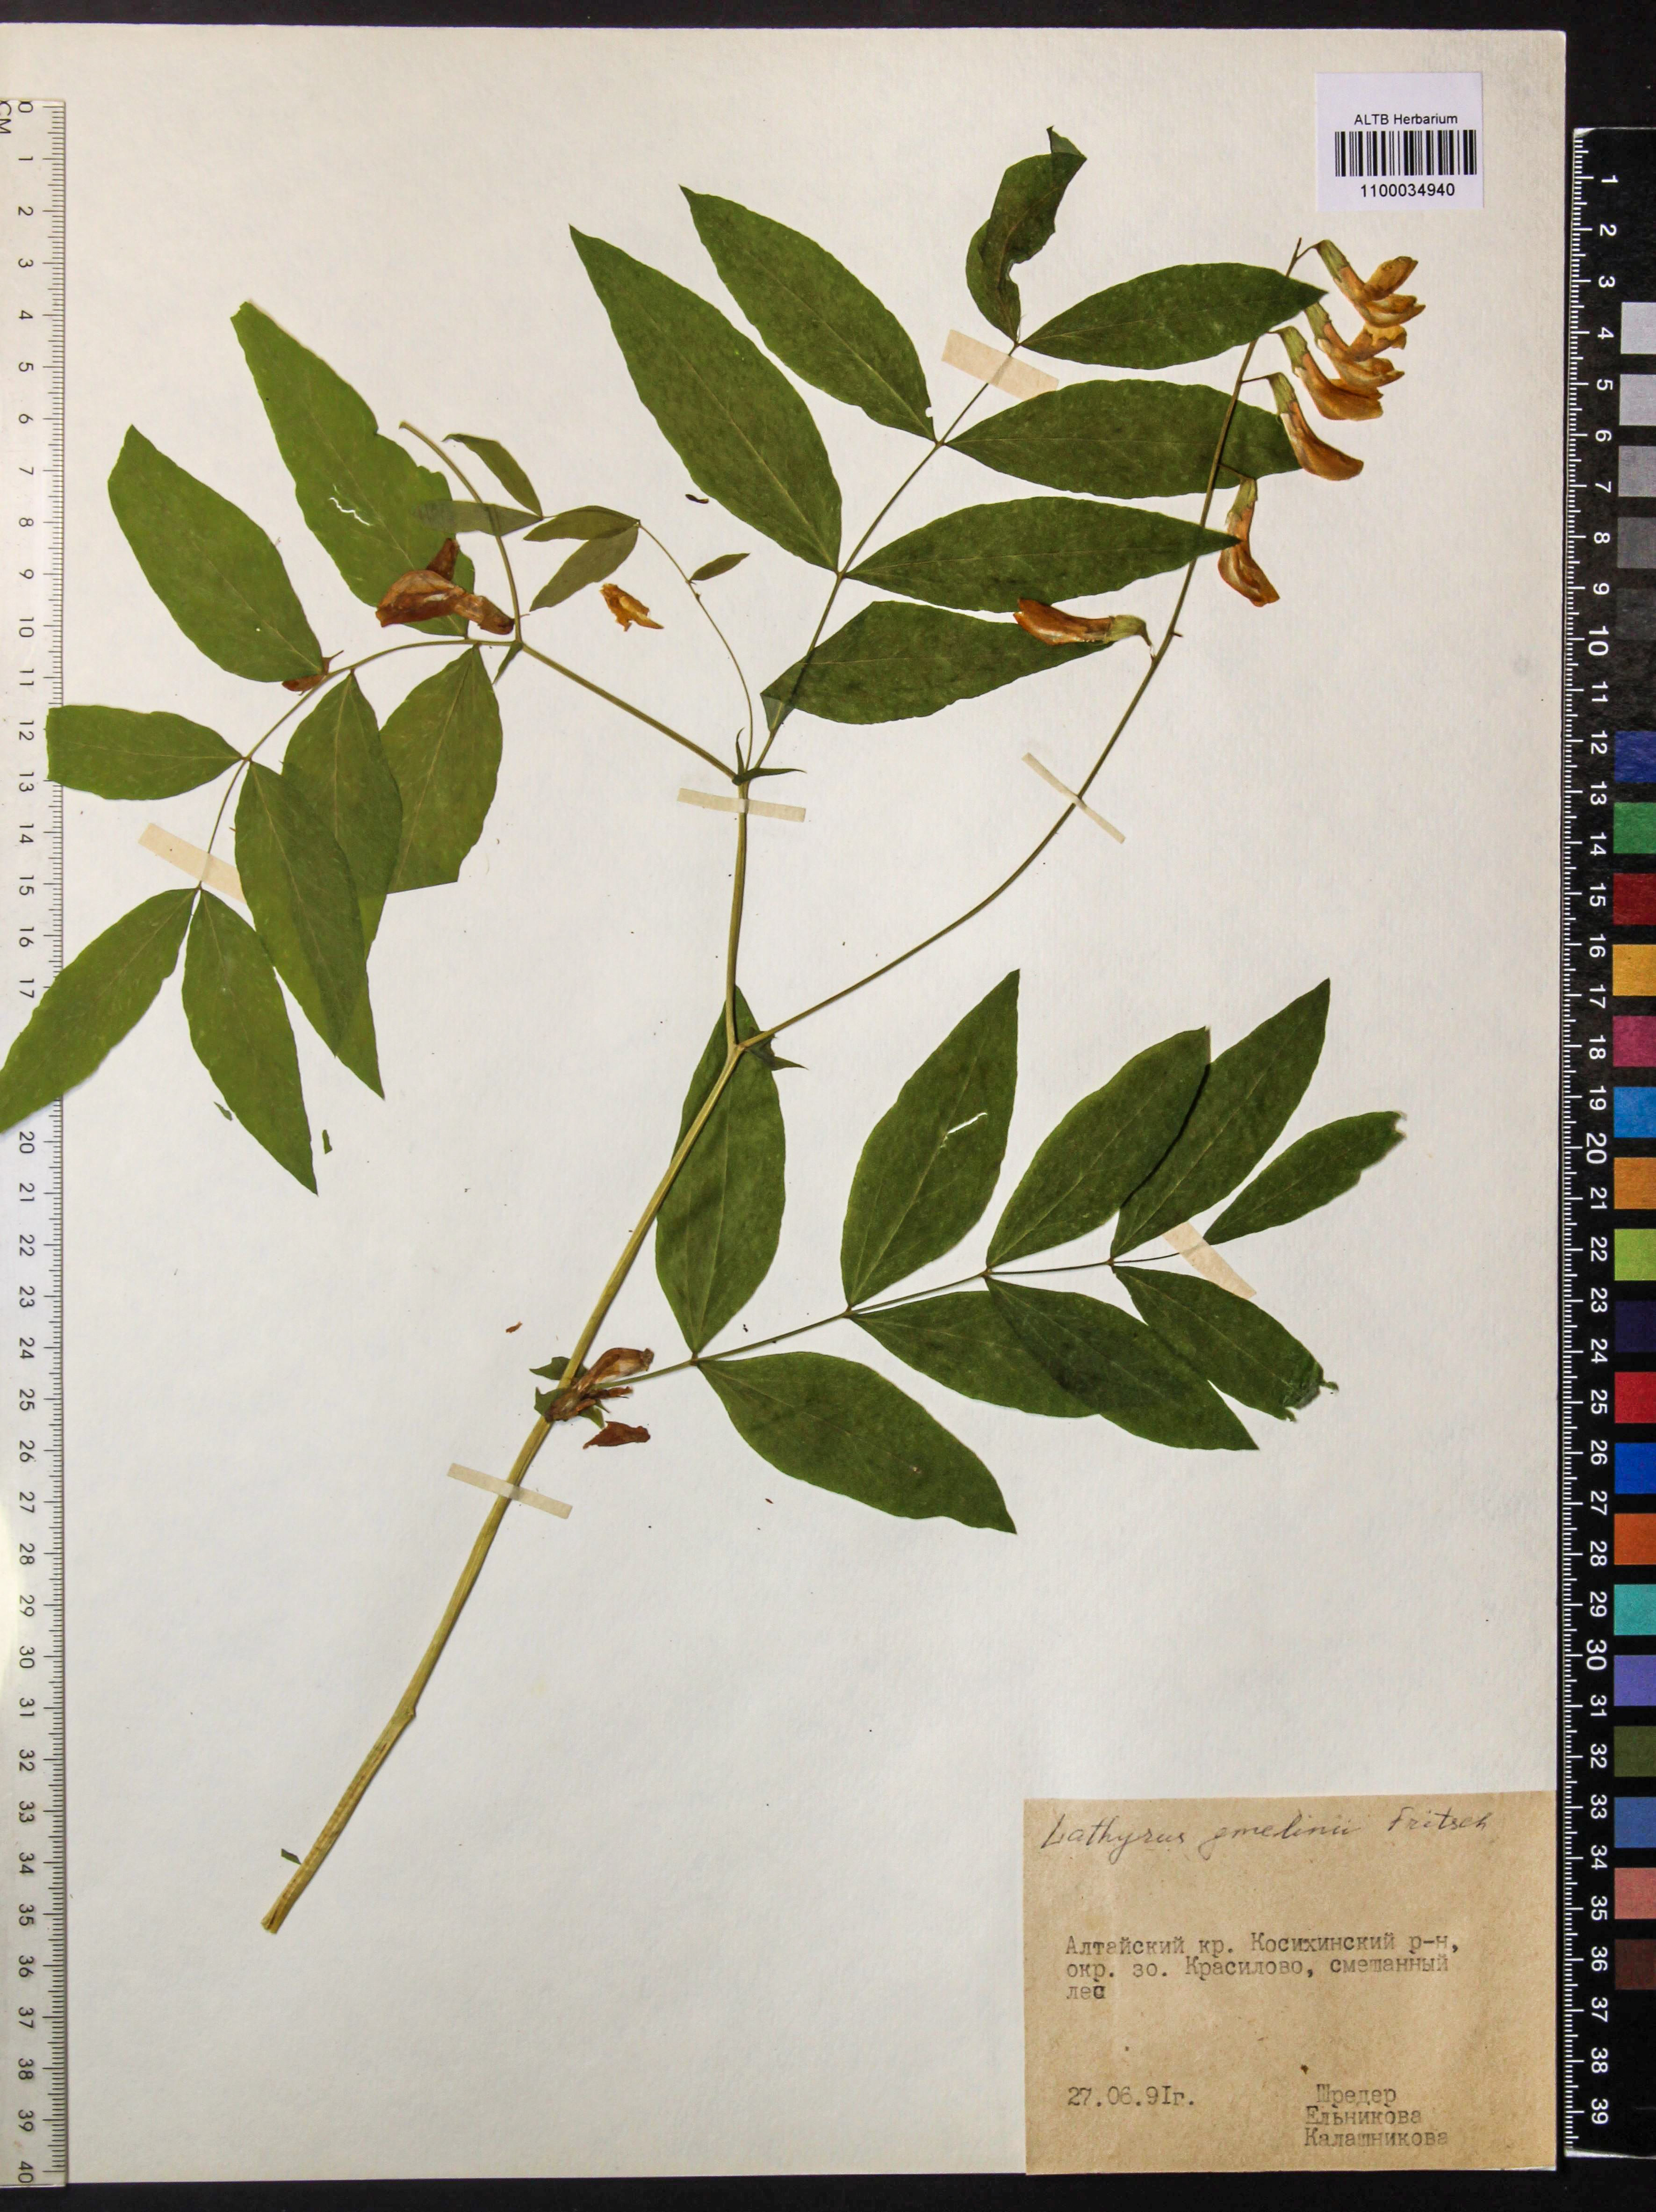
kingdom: Plantae
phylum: Tracheophyta
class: Magnoliopsida
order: Fabales
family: Fabaceae
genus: Lathyrus
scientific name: Lathyrus gmelinii
